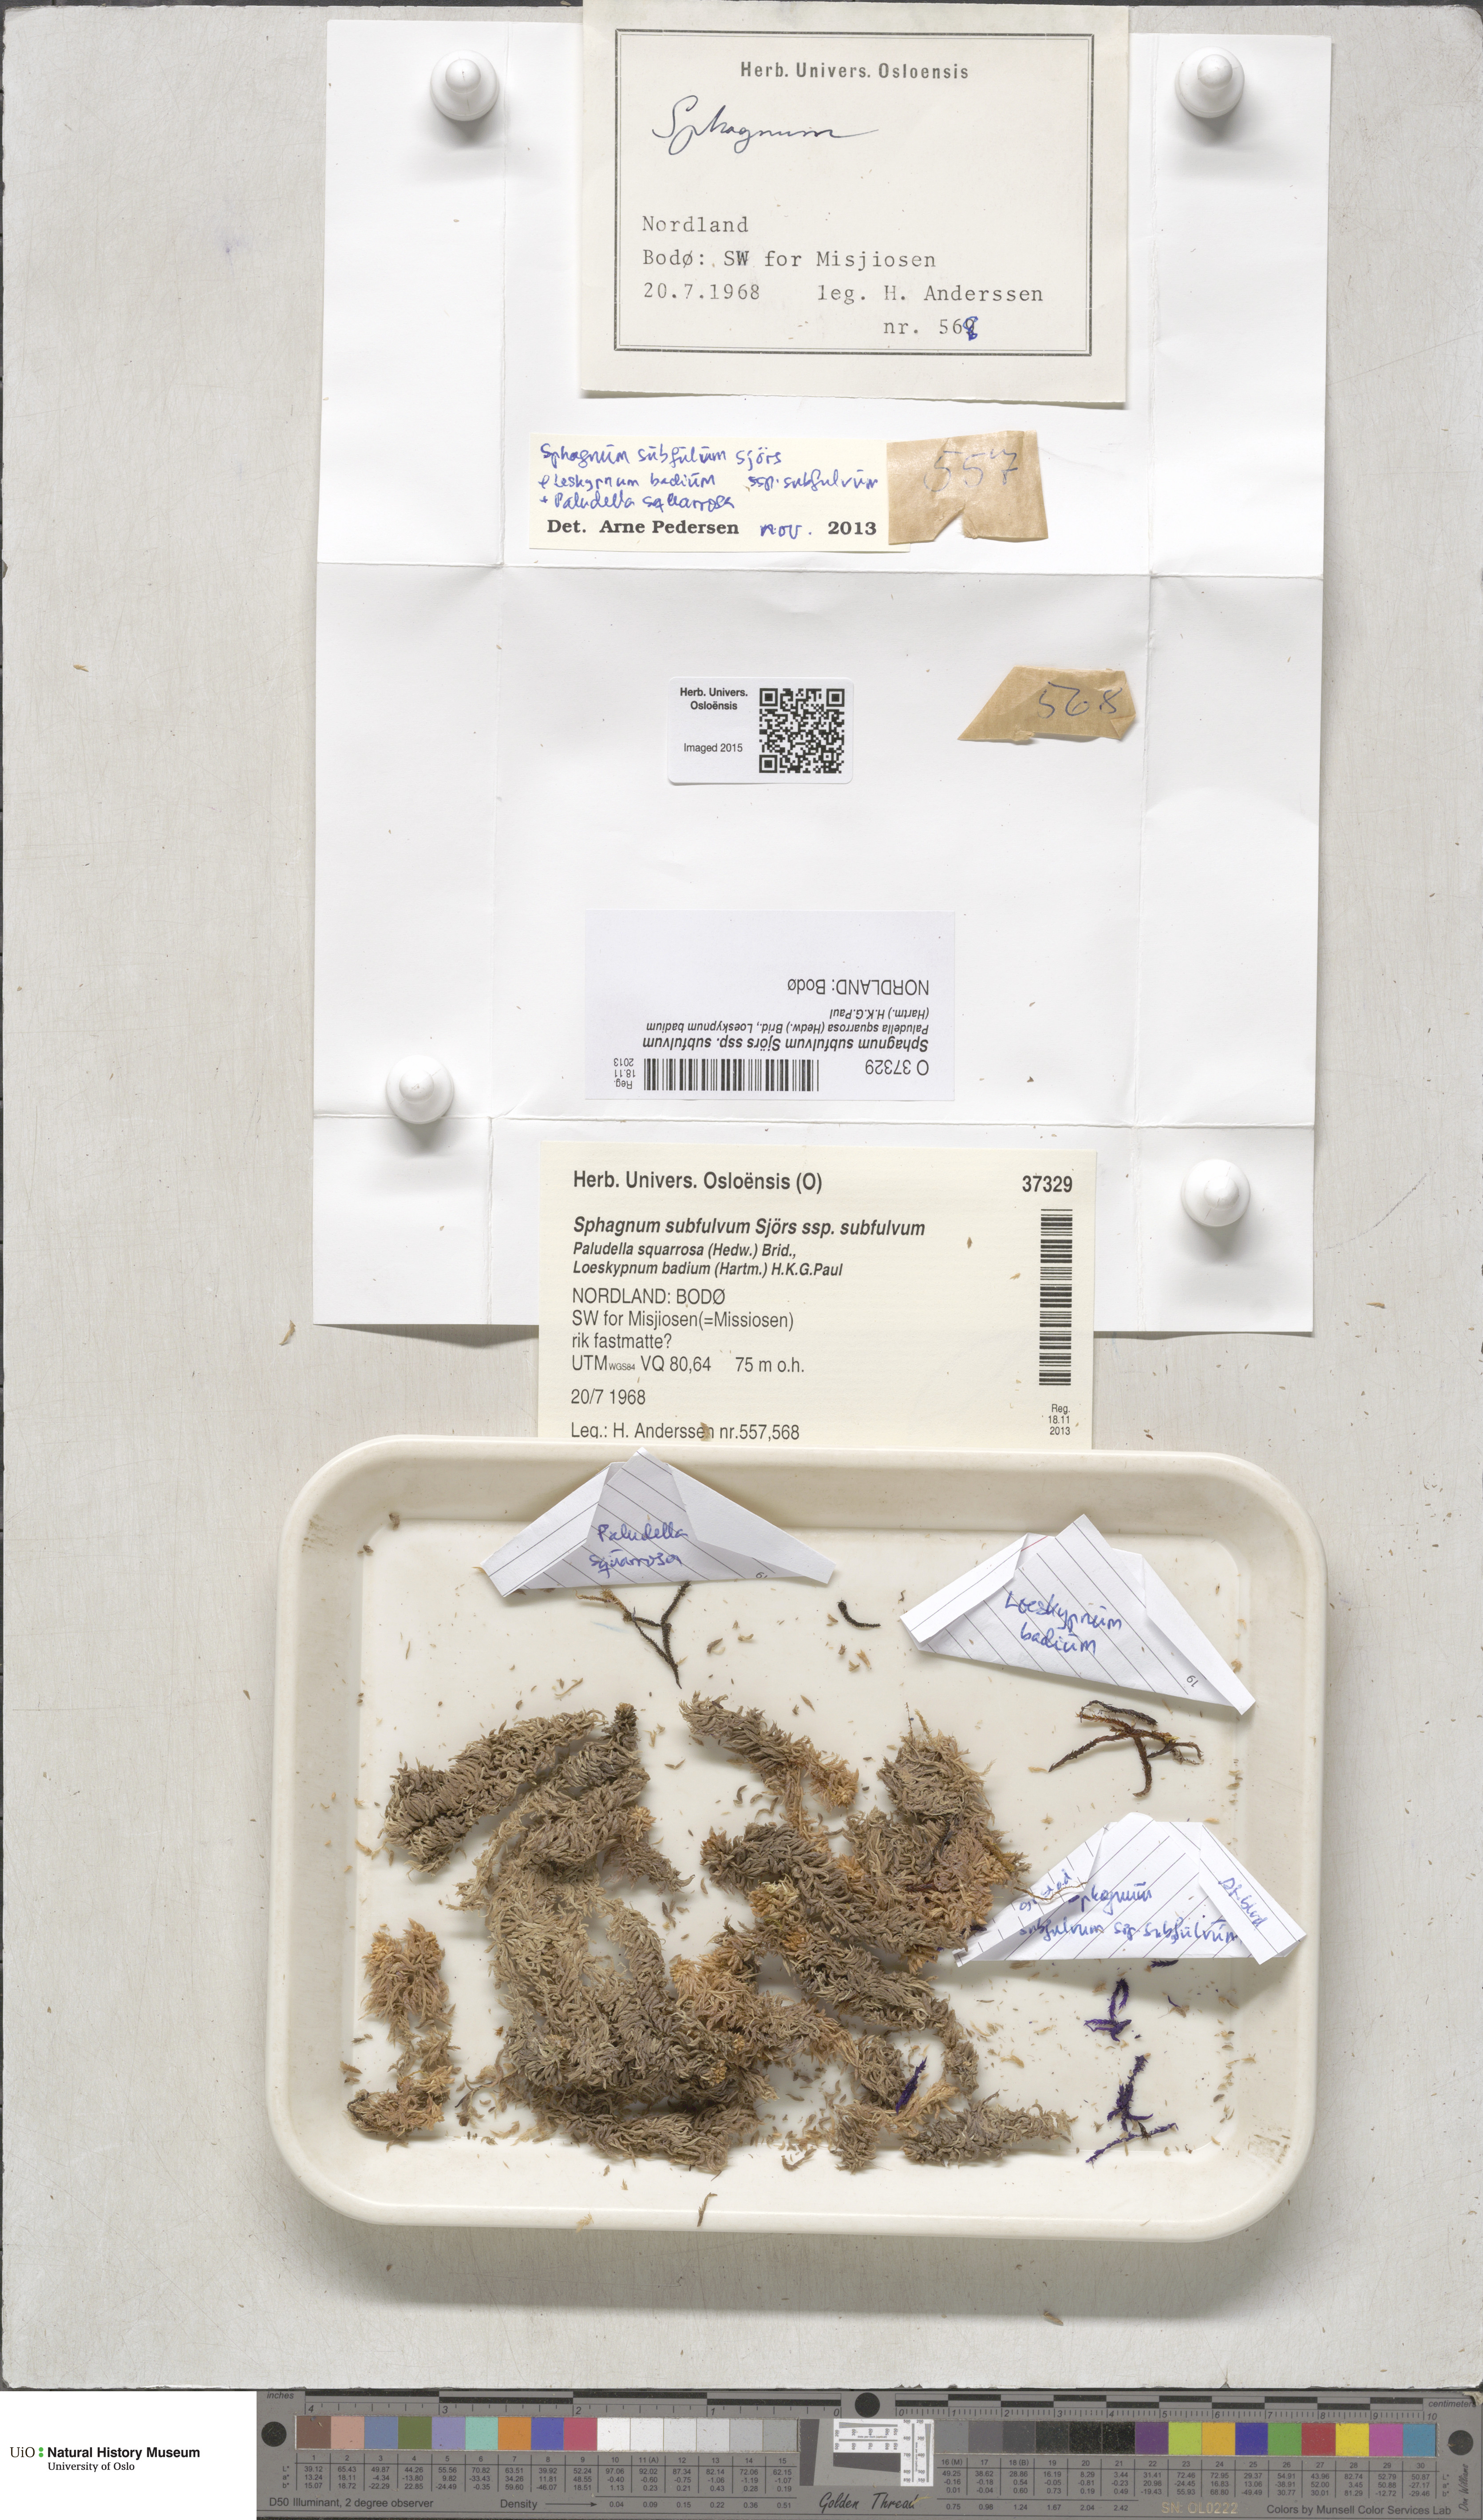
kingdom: Plantae
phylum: Bryophyta
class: Sphagnopsida
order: Sphagnales
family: Sphagnaceae
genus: Sphagnum
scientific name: Sphagnum subfulvum
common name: Fulvous peat moss
